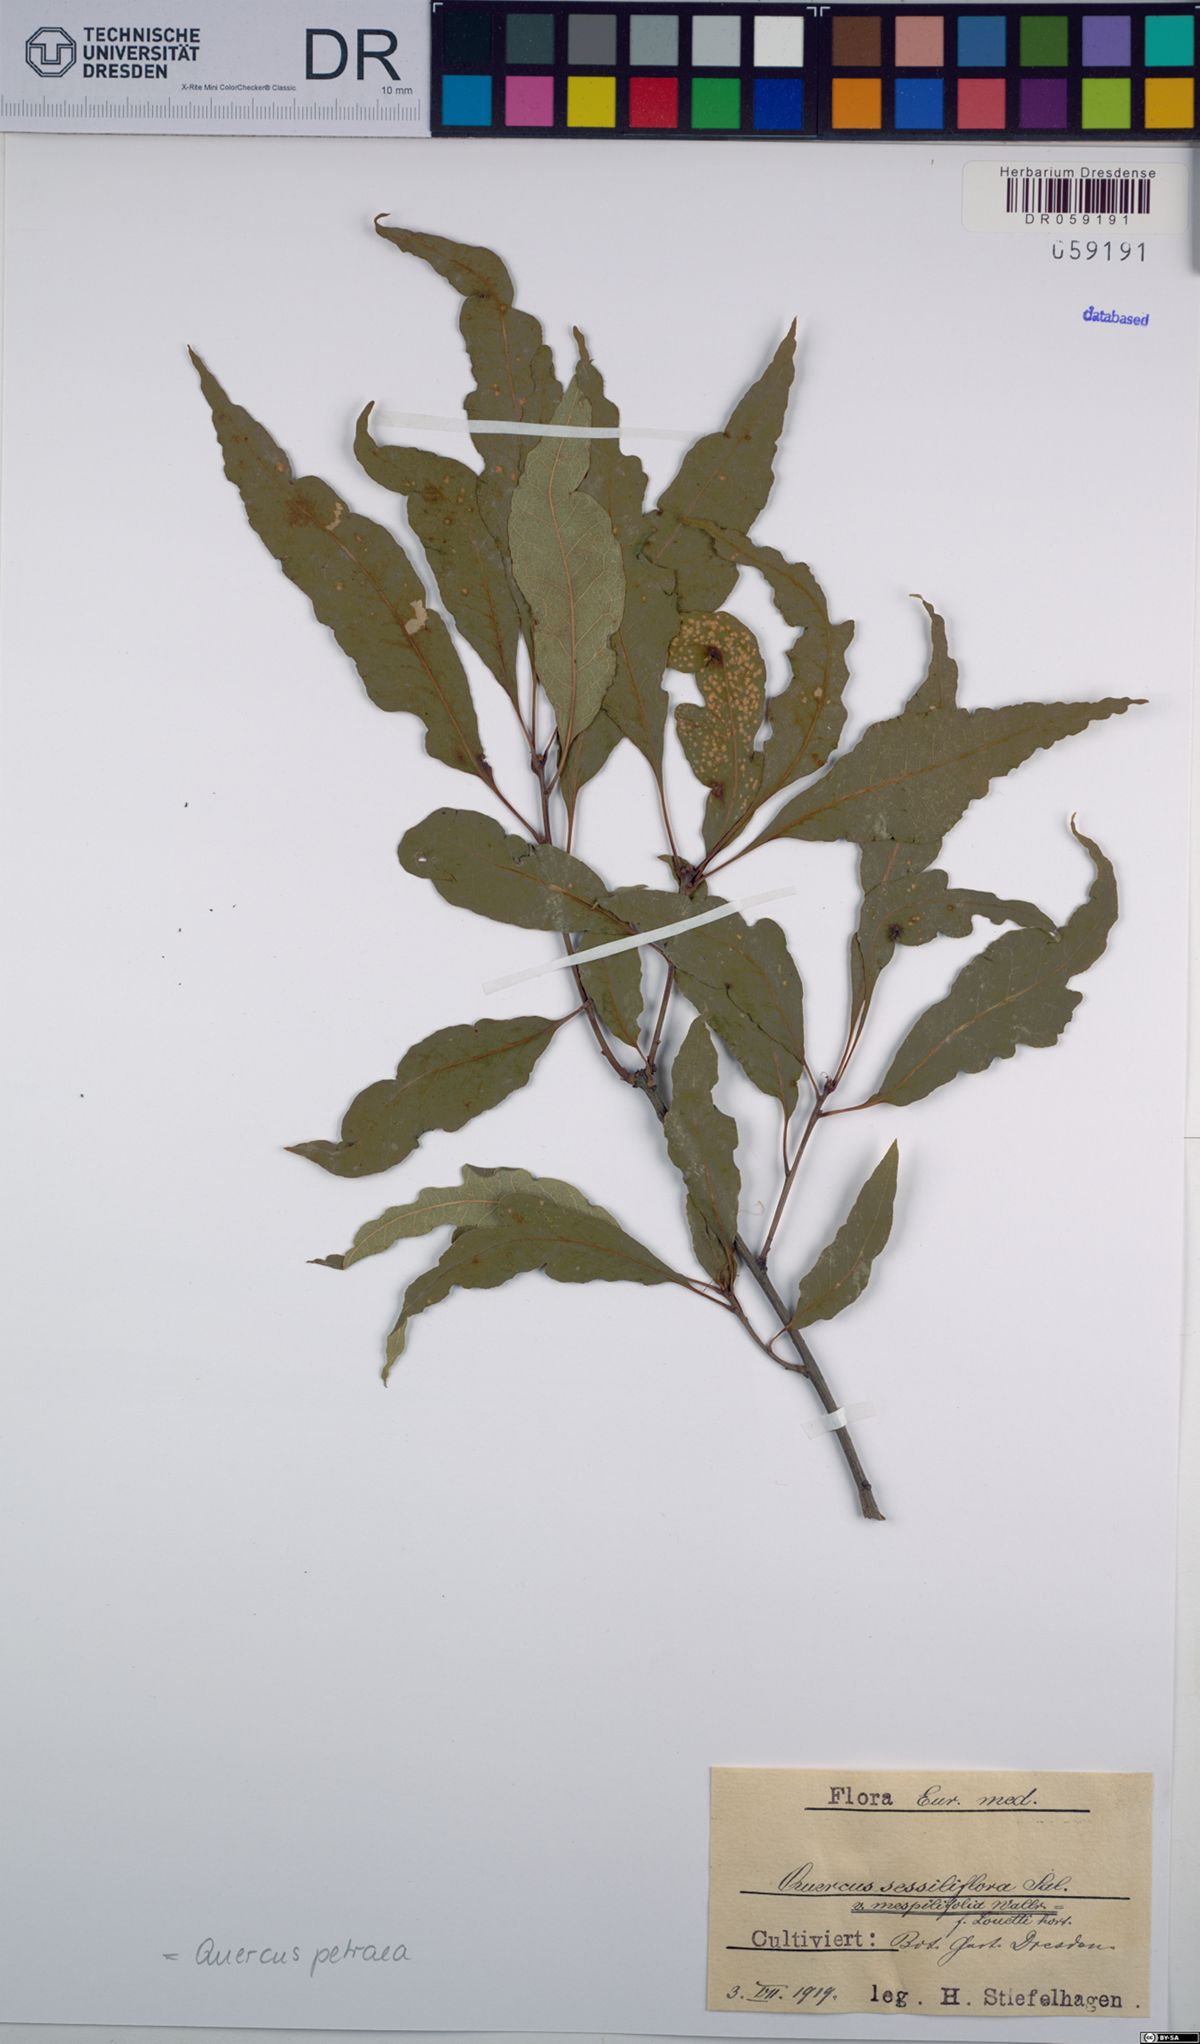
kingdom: Plantae
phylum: Tracheophyta
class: Magnoliopsida
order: Fagales
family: Fagaceae
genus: Quercus
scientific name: Quercus petraea
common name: Sessile oak
